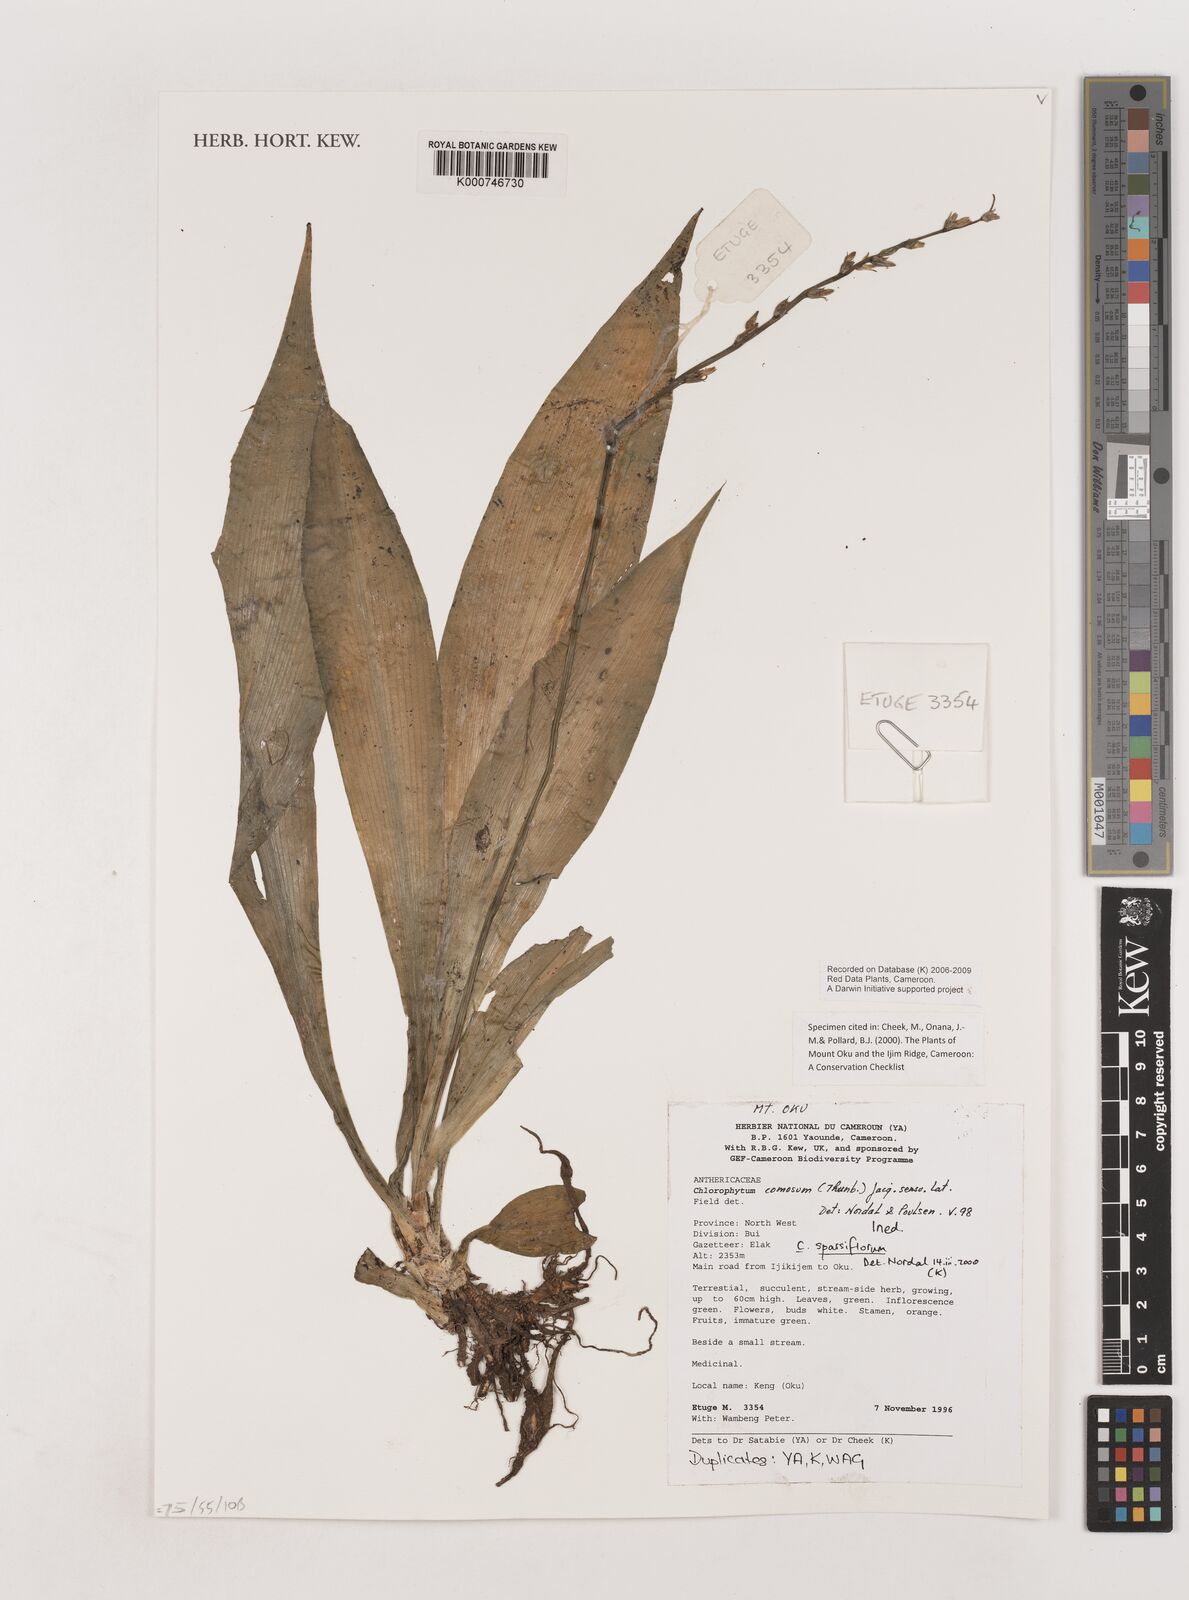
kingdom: Plantae
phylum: Tracheophyta
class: Liliopsida
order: Asparagales
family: Asparagaceae
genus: Chlorophytum
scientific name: Chlorophytum sparsiflorum
